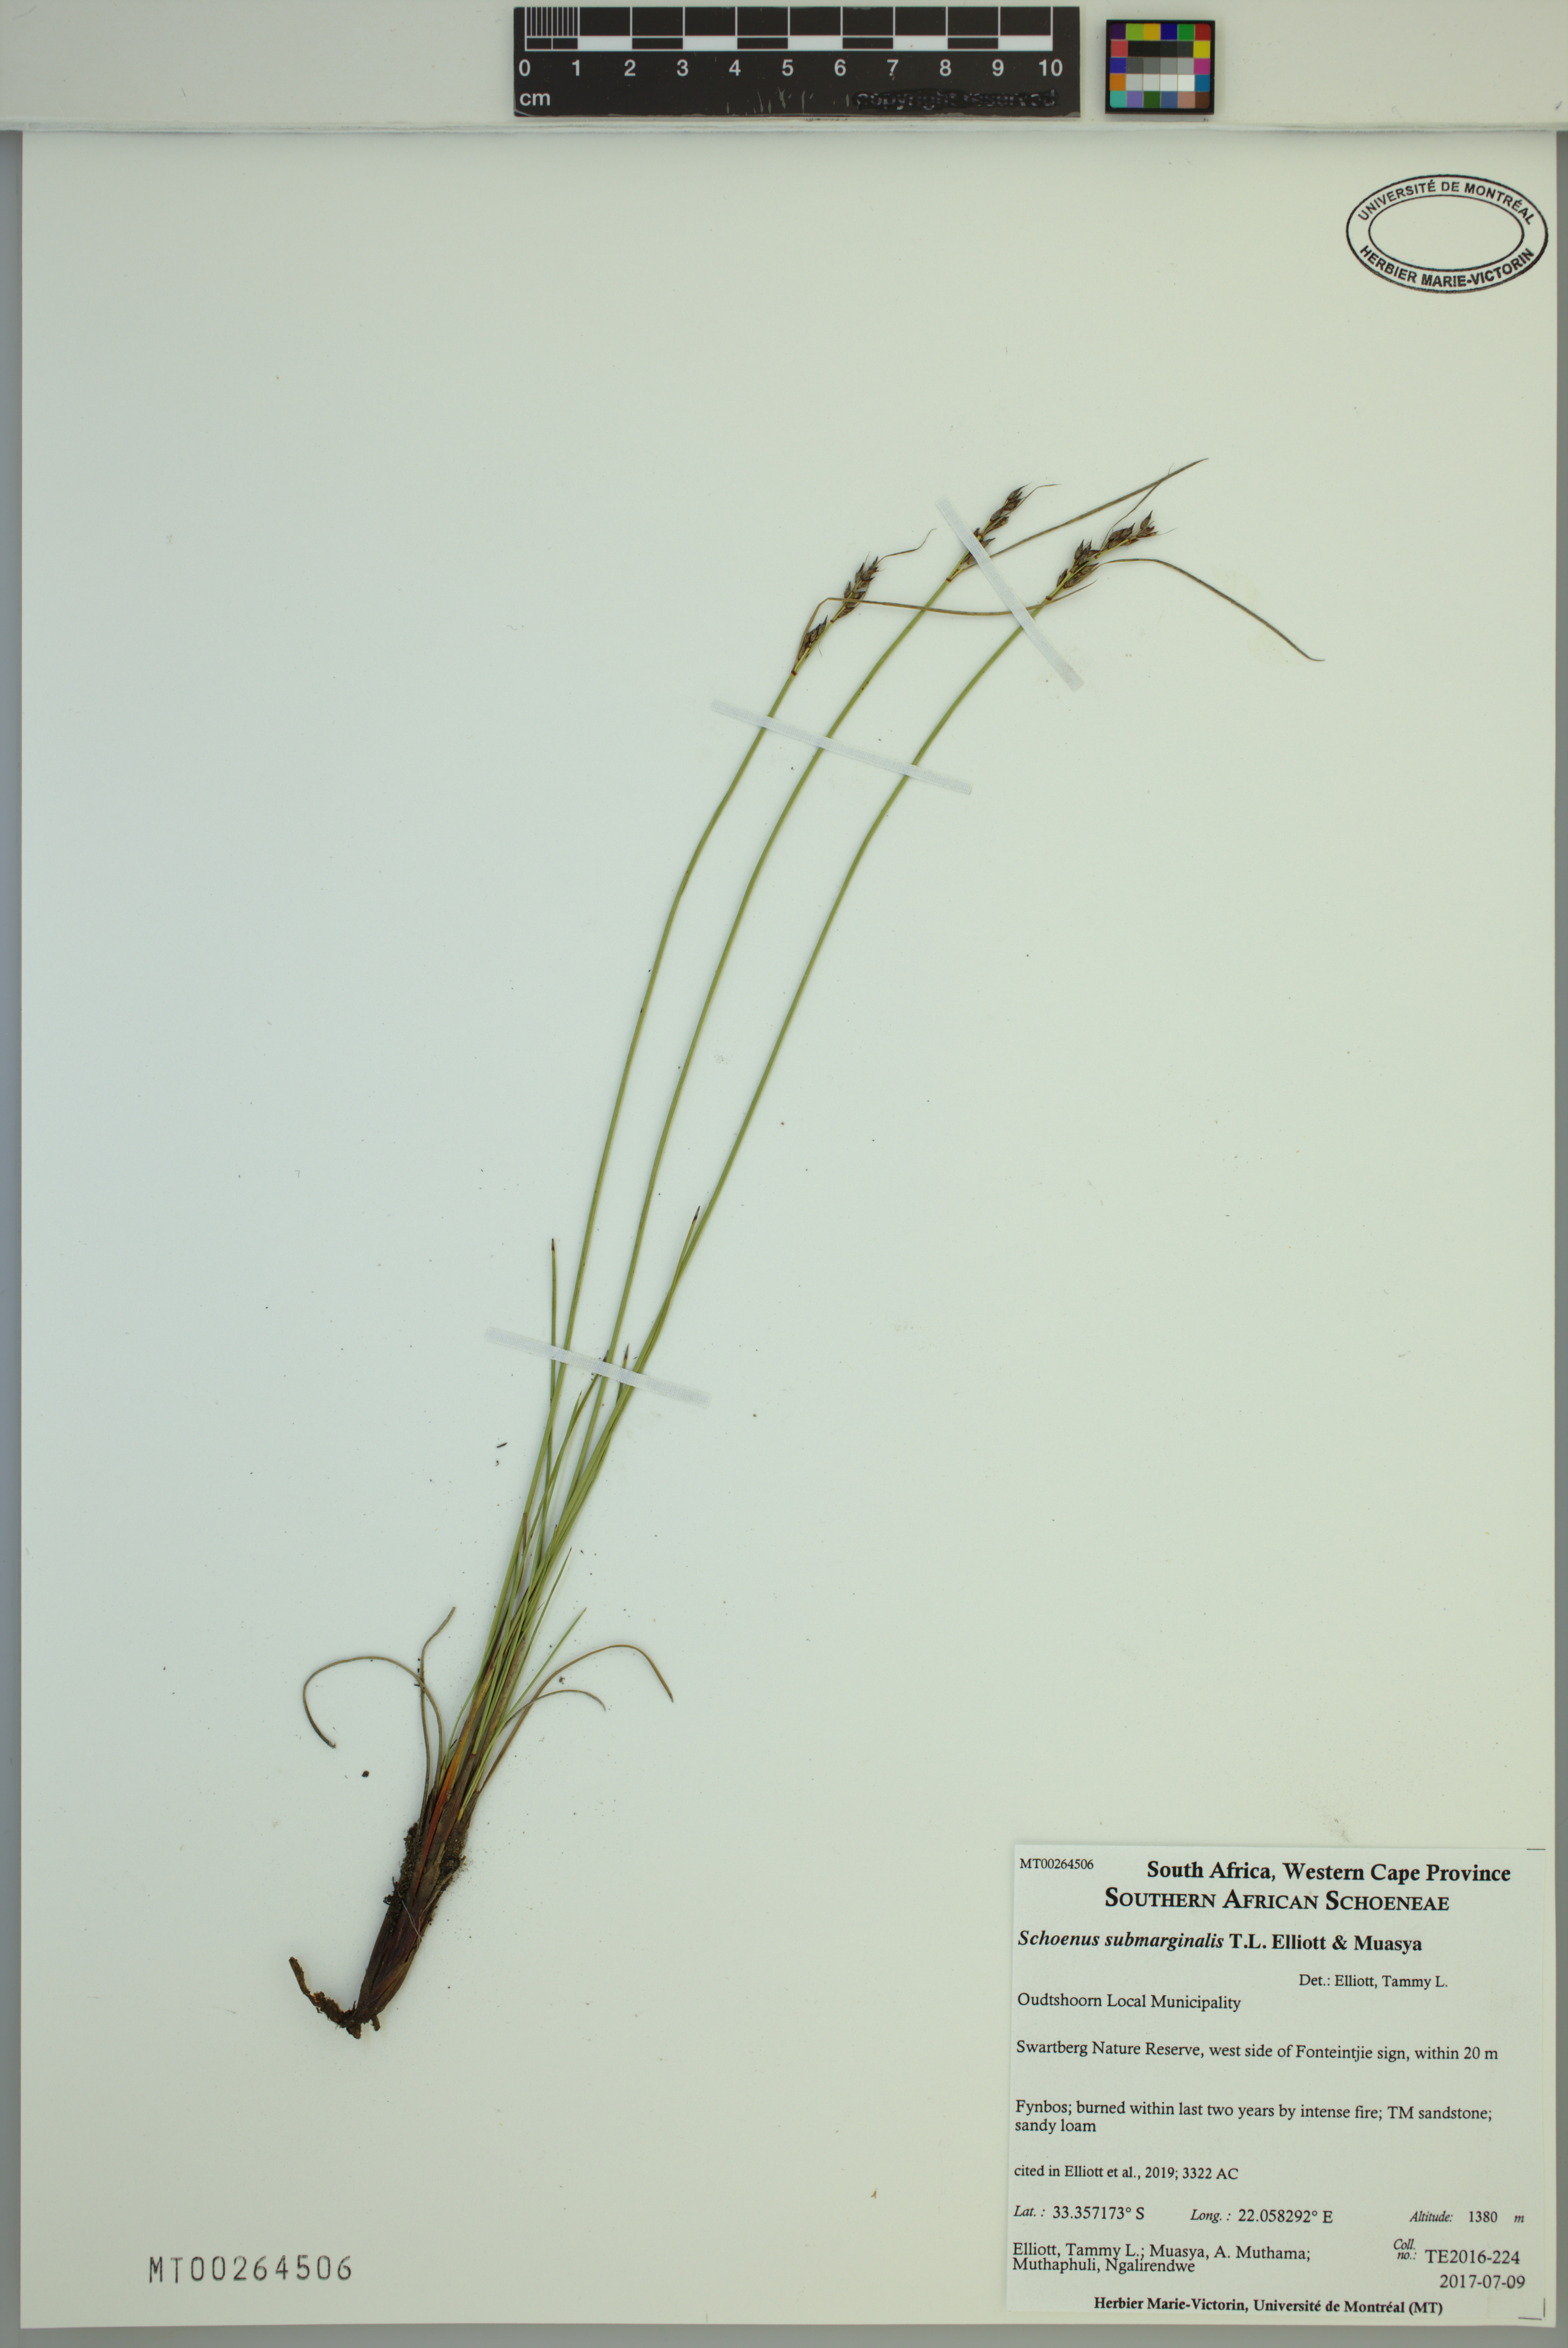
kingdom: Plantae
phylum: Tracheophyta
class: Liliopsida
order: Poales
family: Cyperaceae
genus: Schoenus
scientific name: Schoenus submarginalis
